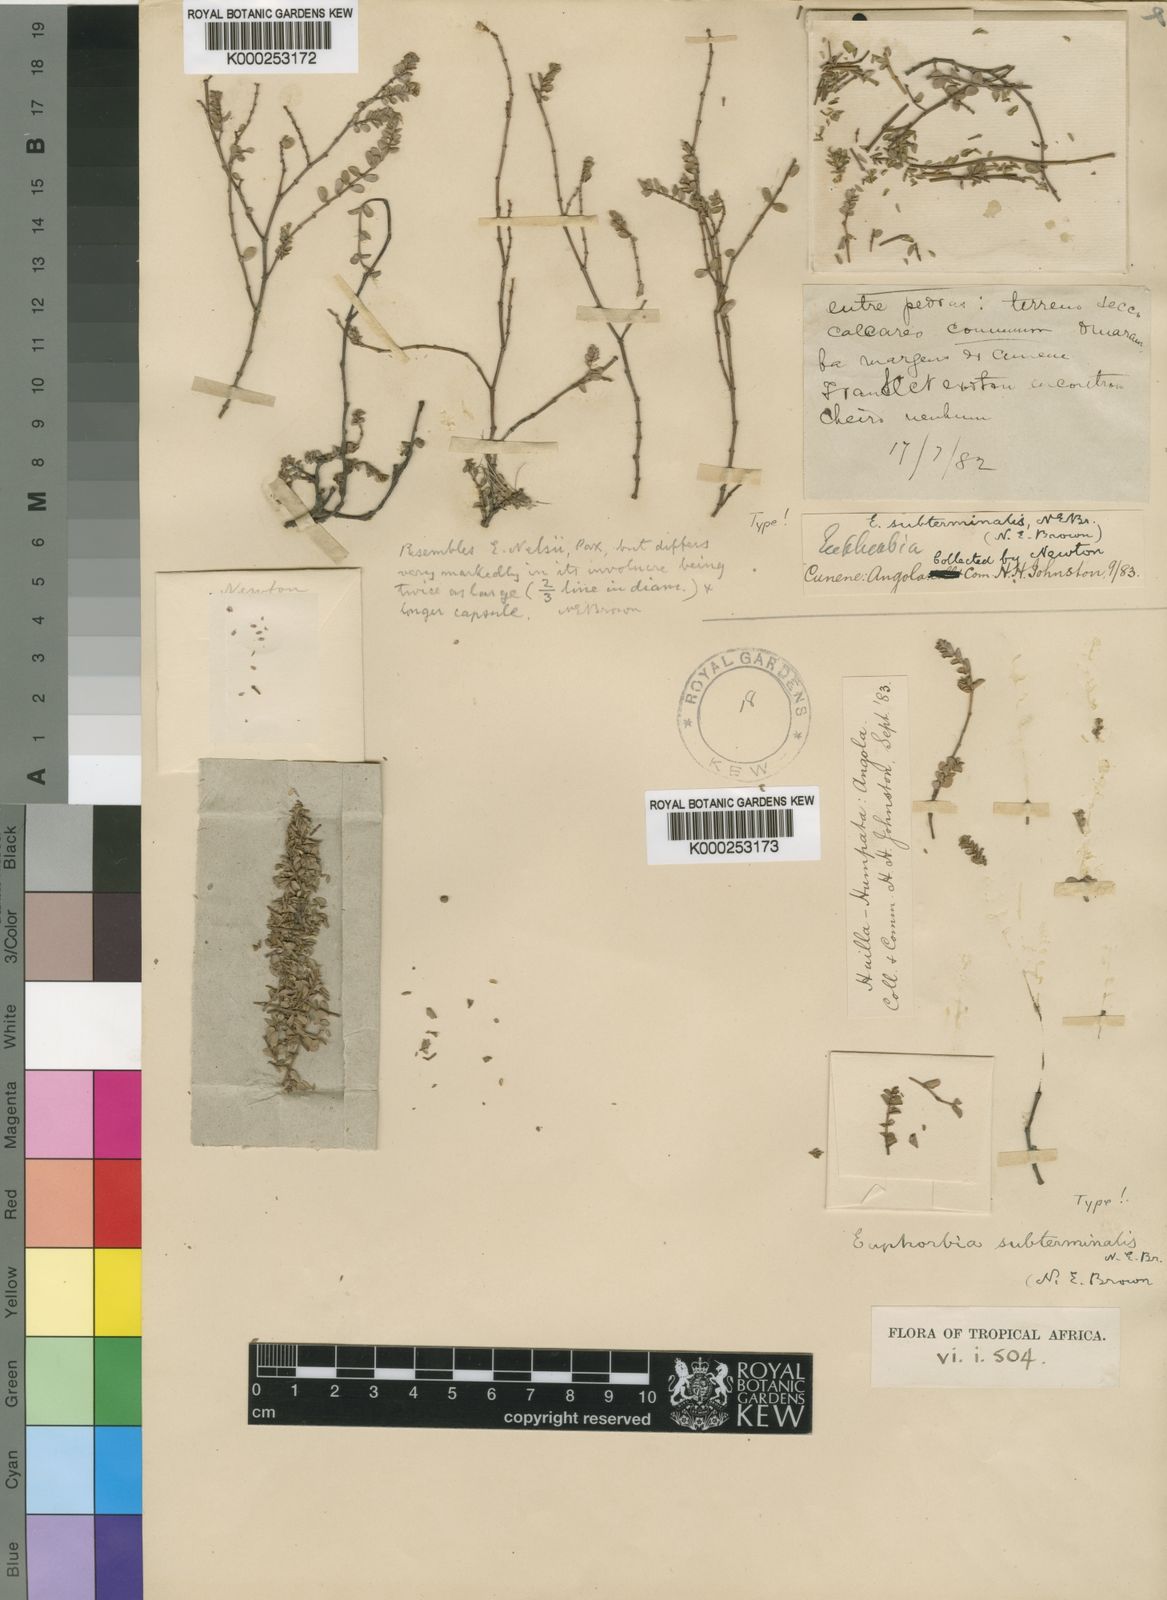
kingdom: Plantae
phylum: Tracheophyta
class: Magnoliopsida
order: Malpighiales
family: Euphorbiaceae
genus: Euphorbia
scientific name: Euphorbia subterminalis
